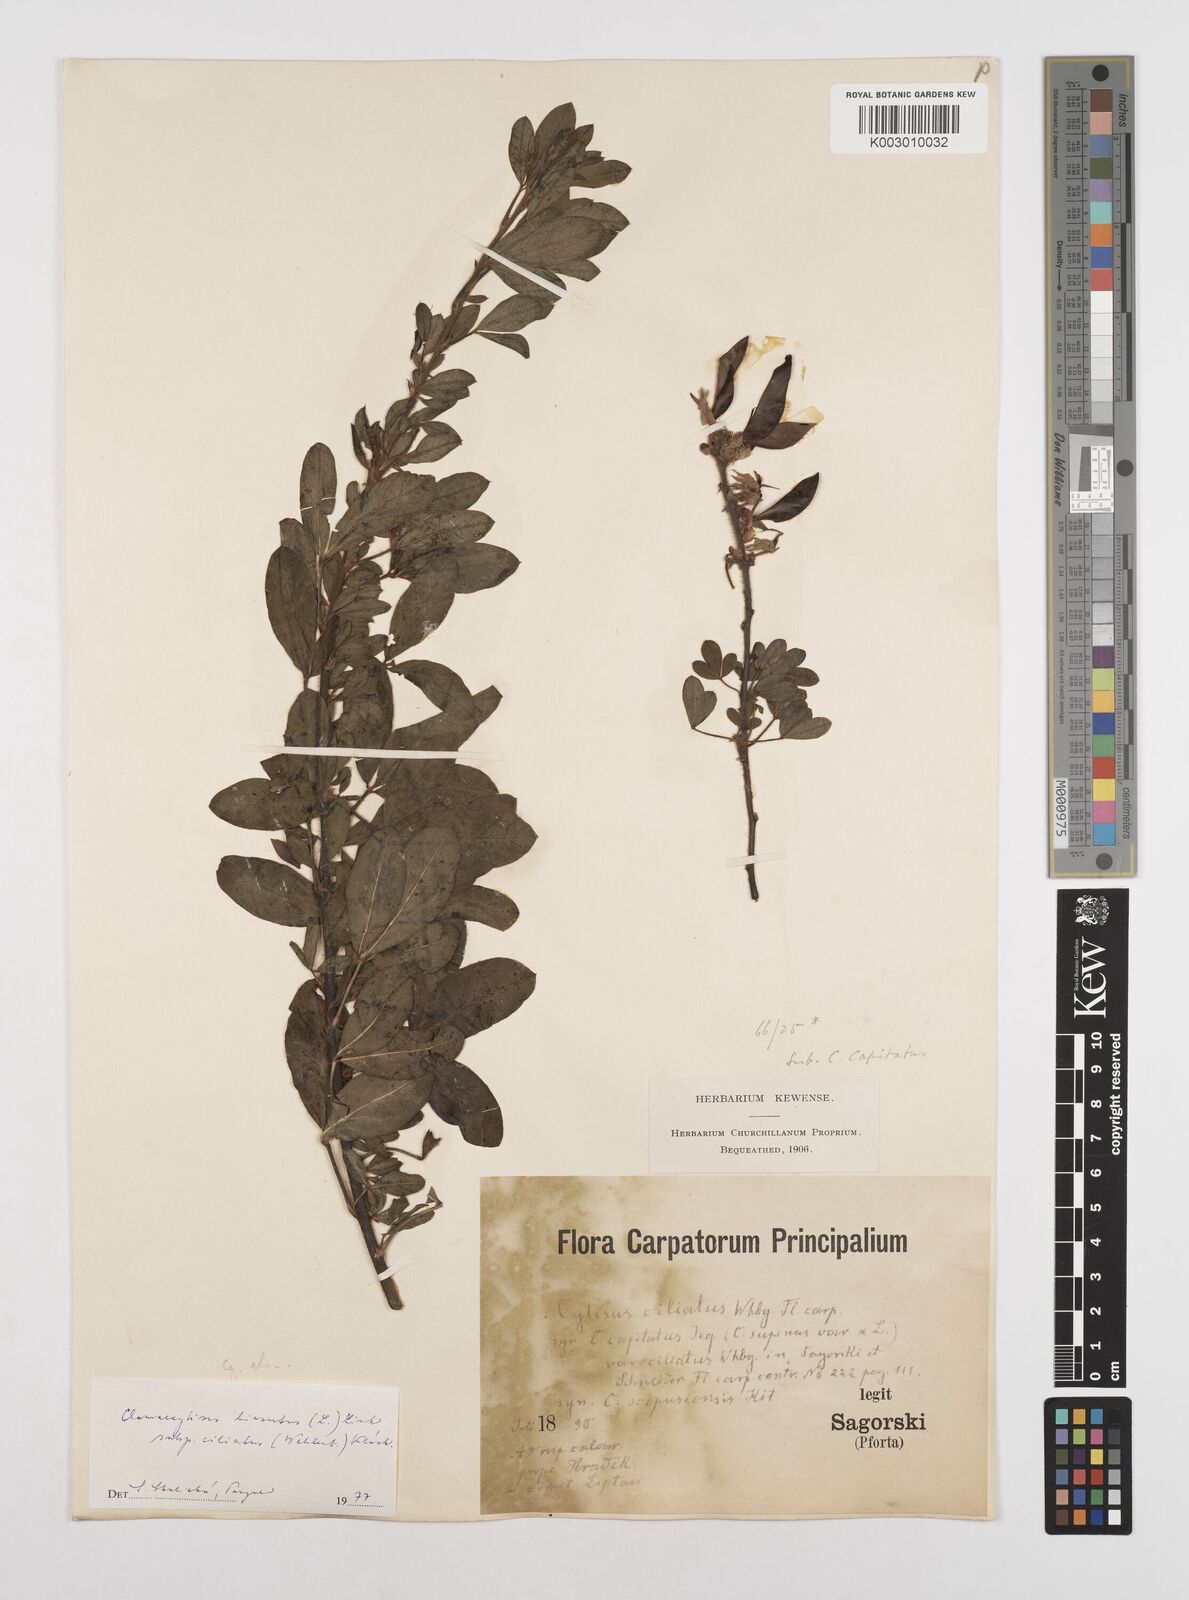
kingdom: Plantae
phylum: Tracheophyta
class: Magnoliopsida
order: Fabales
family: Fabaceae
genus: Chamaecytisus
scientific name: Chamaecytisus hirsutus
